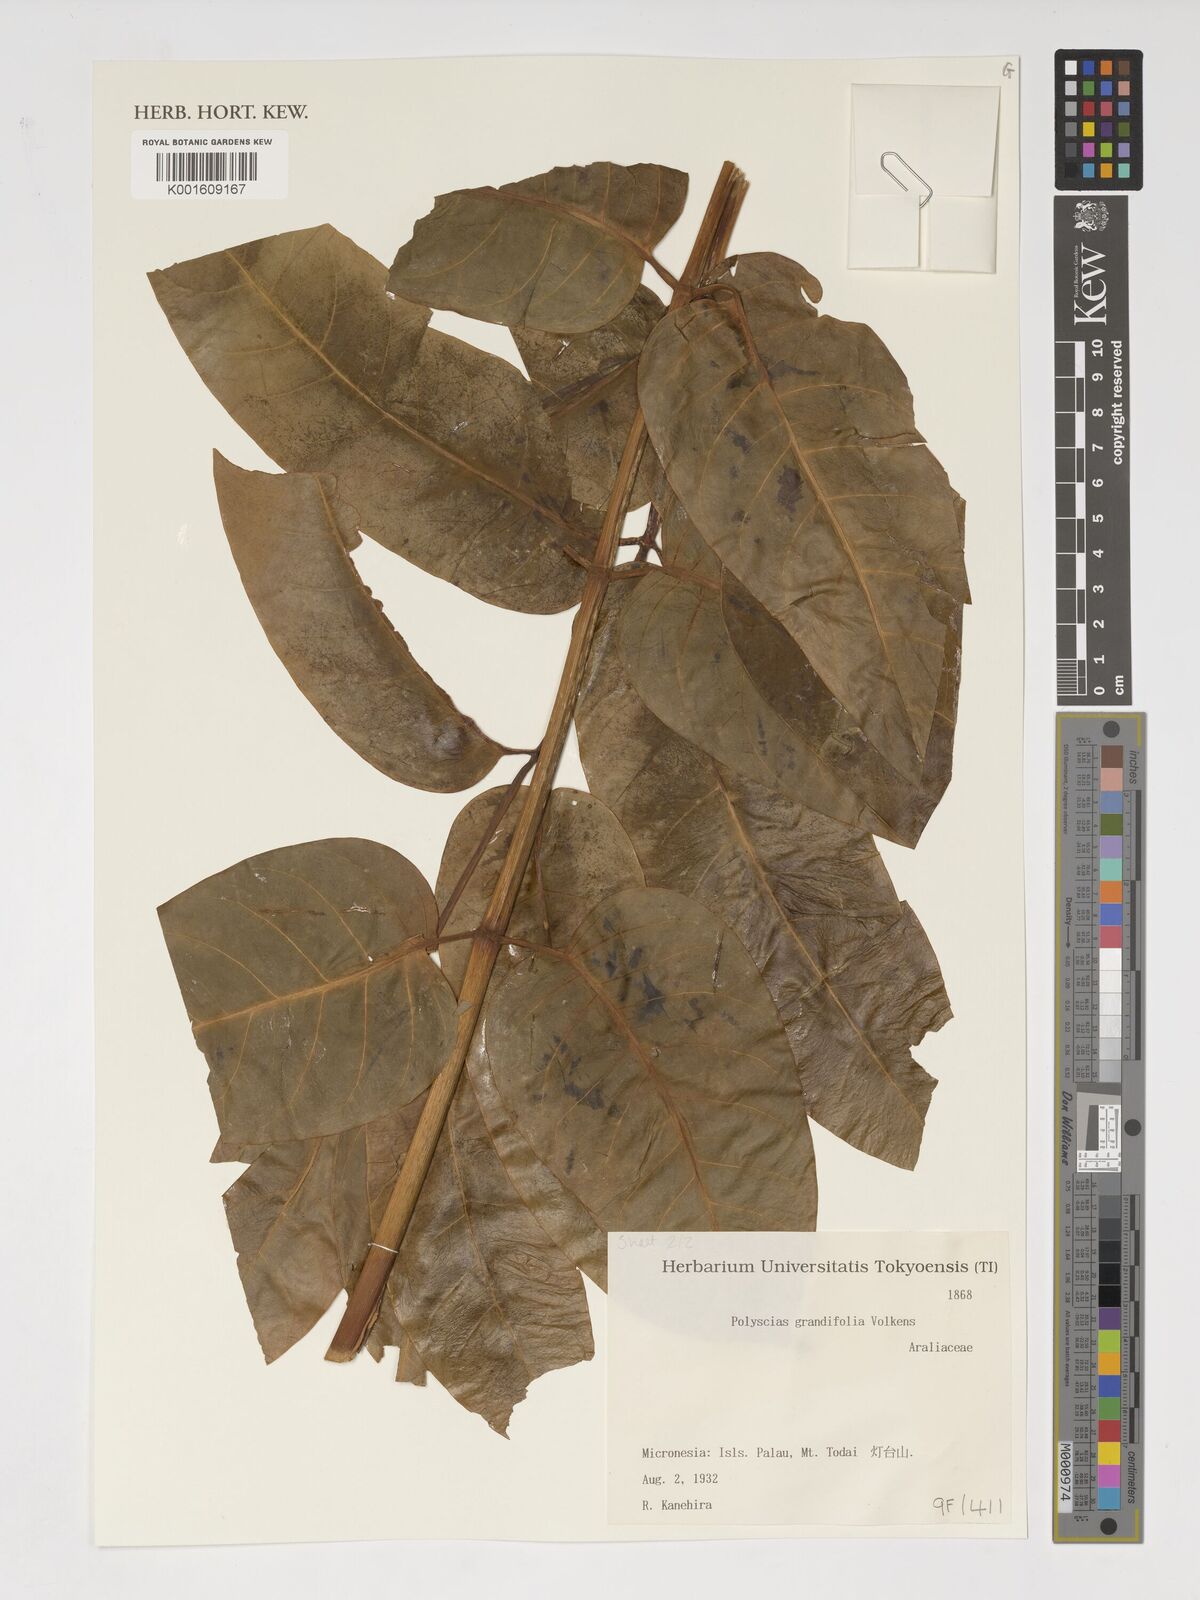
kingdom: Plantae
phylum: Tracheophyta
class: Magnoliopsida
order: Apiales
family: Araliaceae
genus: Polyscias
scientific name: Polyscias macgillivrayi
